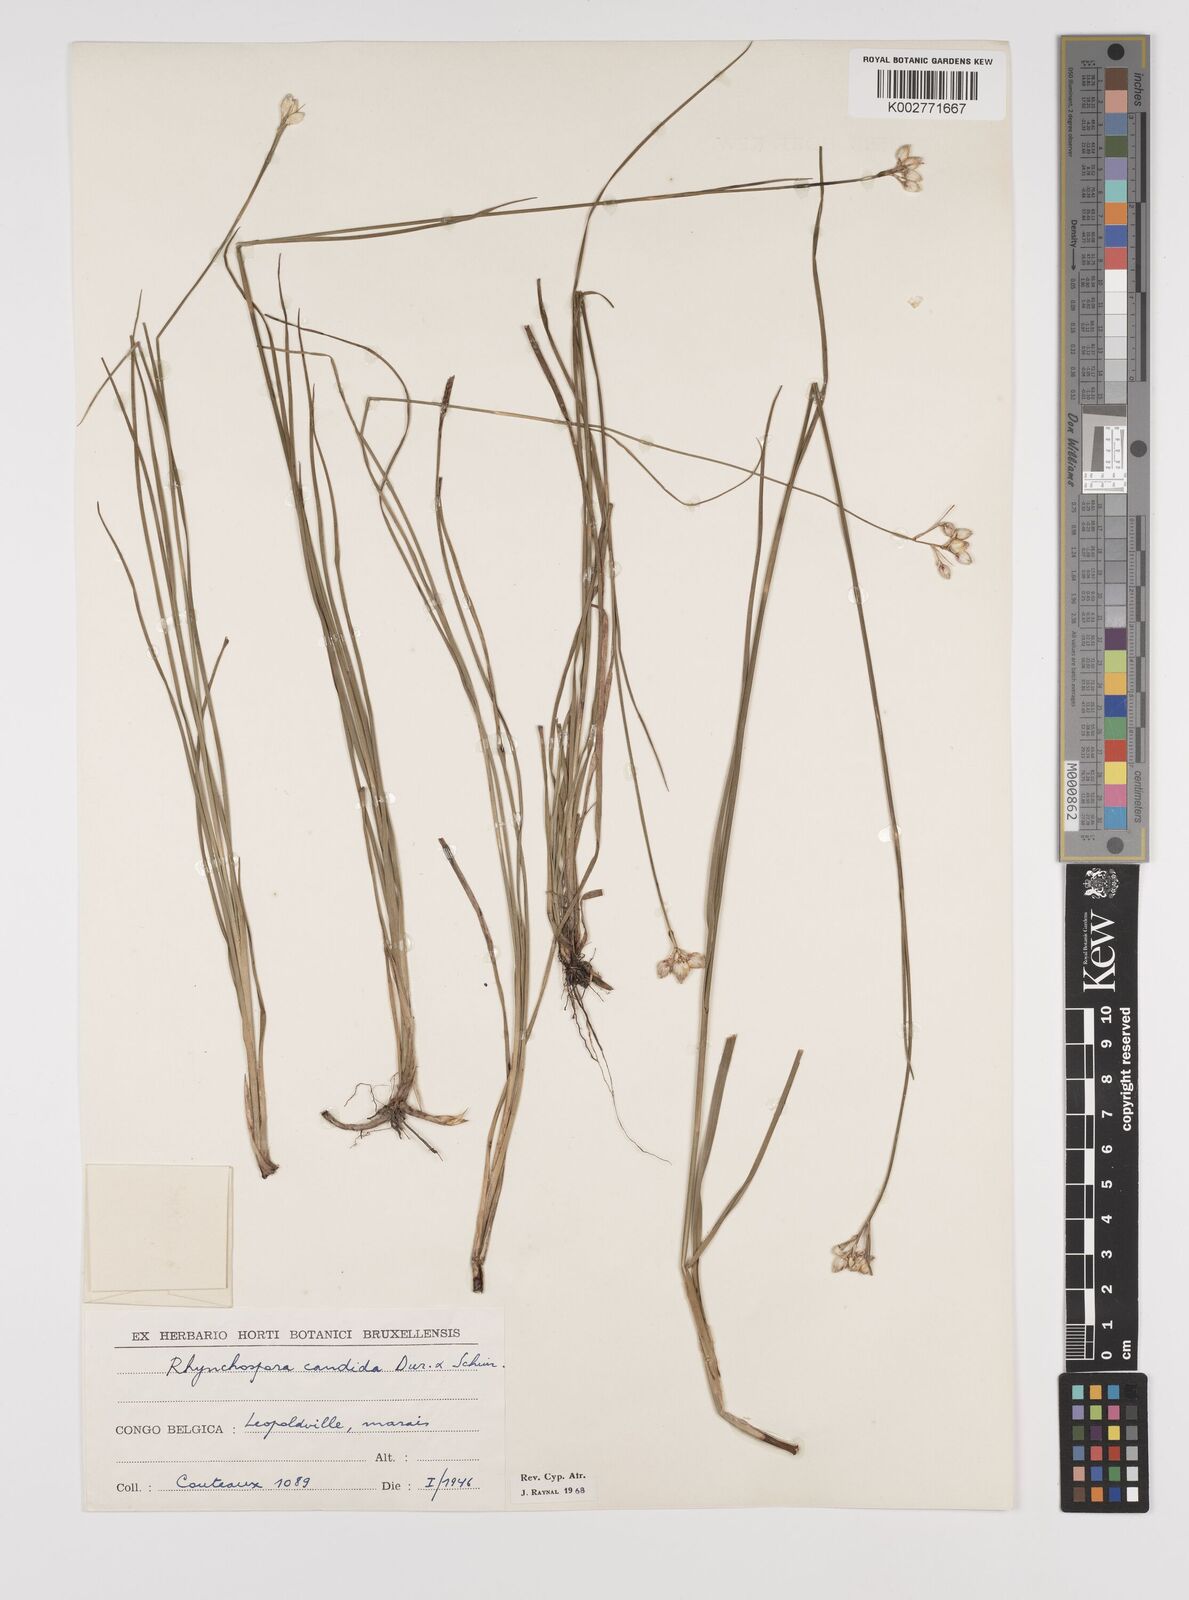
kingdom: Plantae
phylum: Tracheophyta
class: Liliopsida
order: Poales
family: Cyperaceae
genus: Rhynchospora
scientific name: Rhynchospora candida
